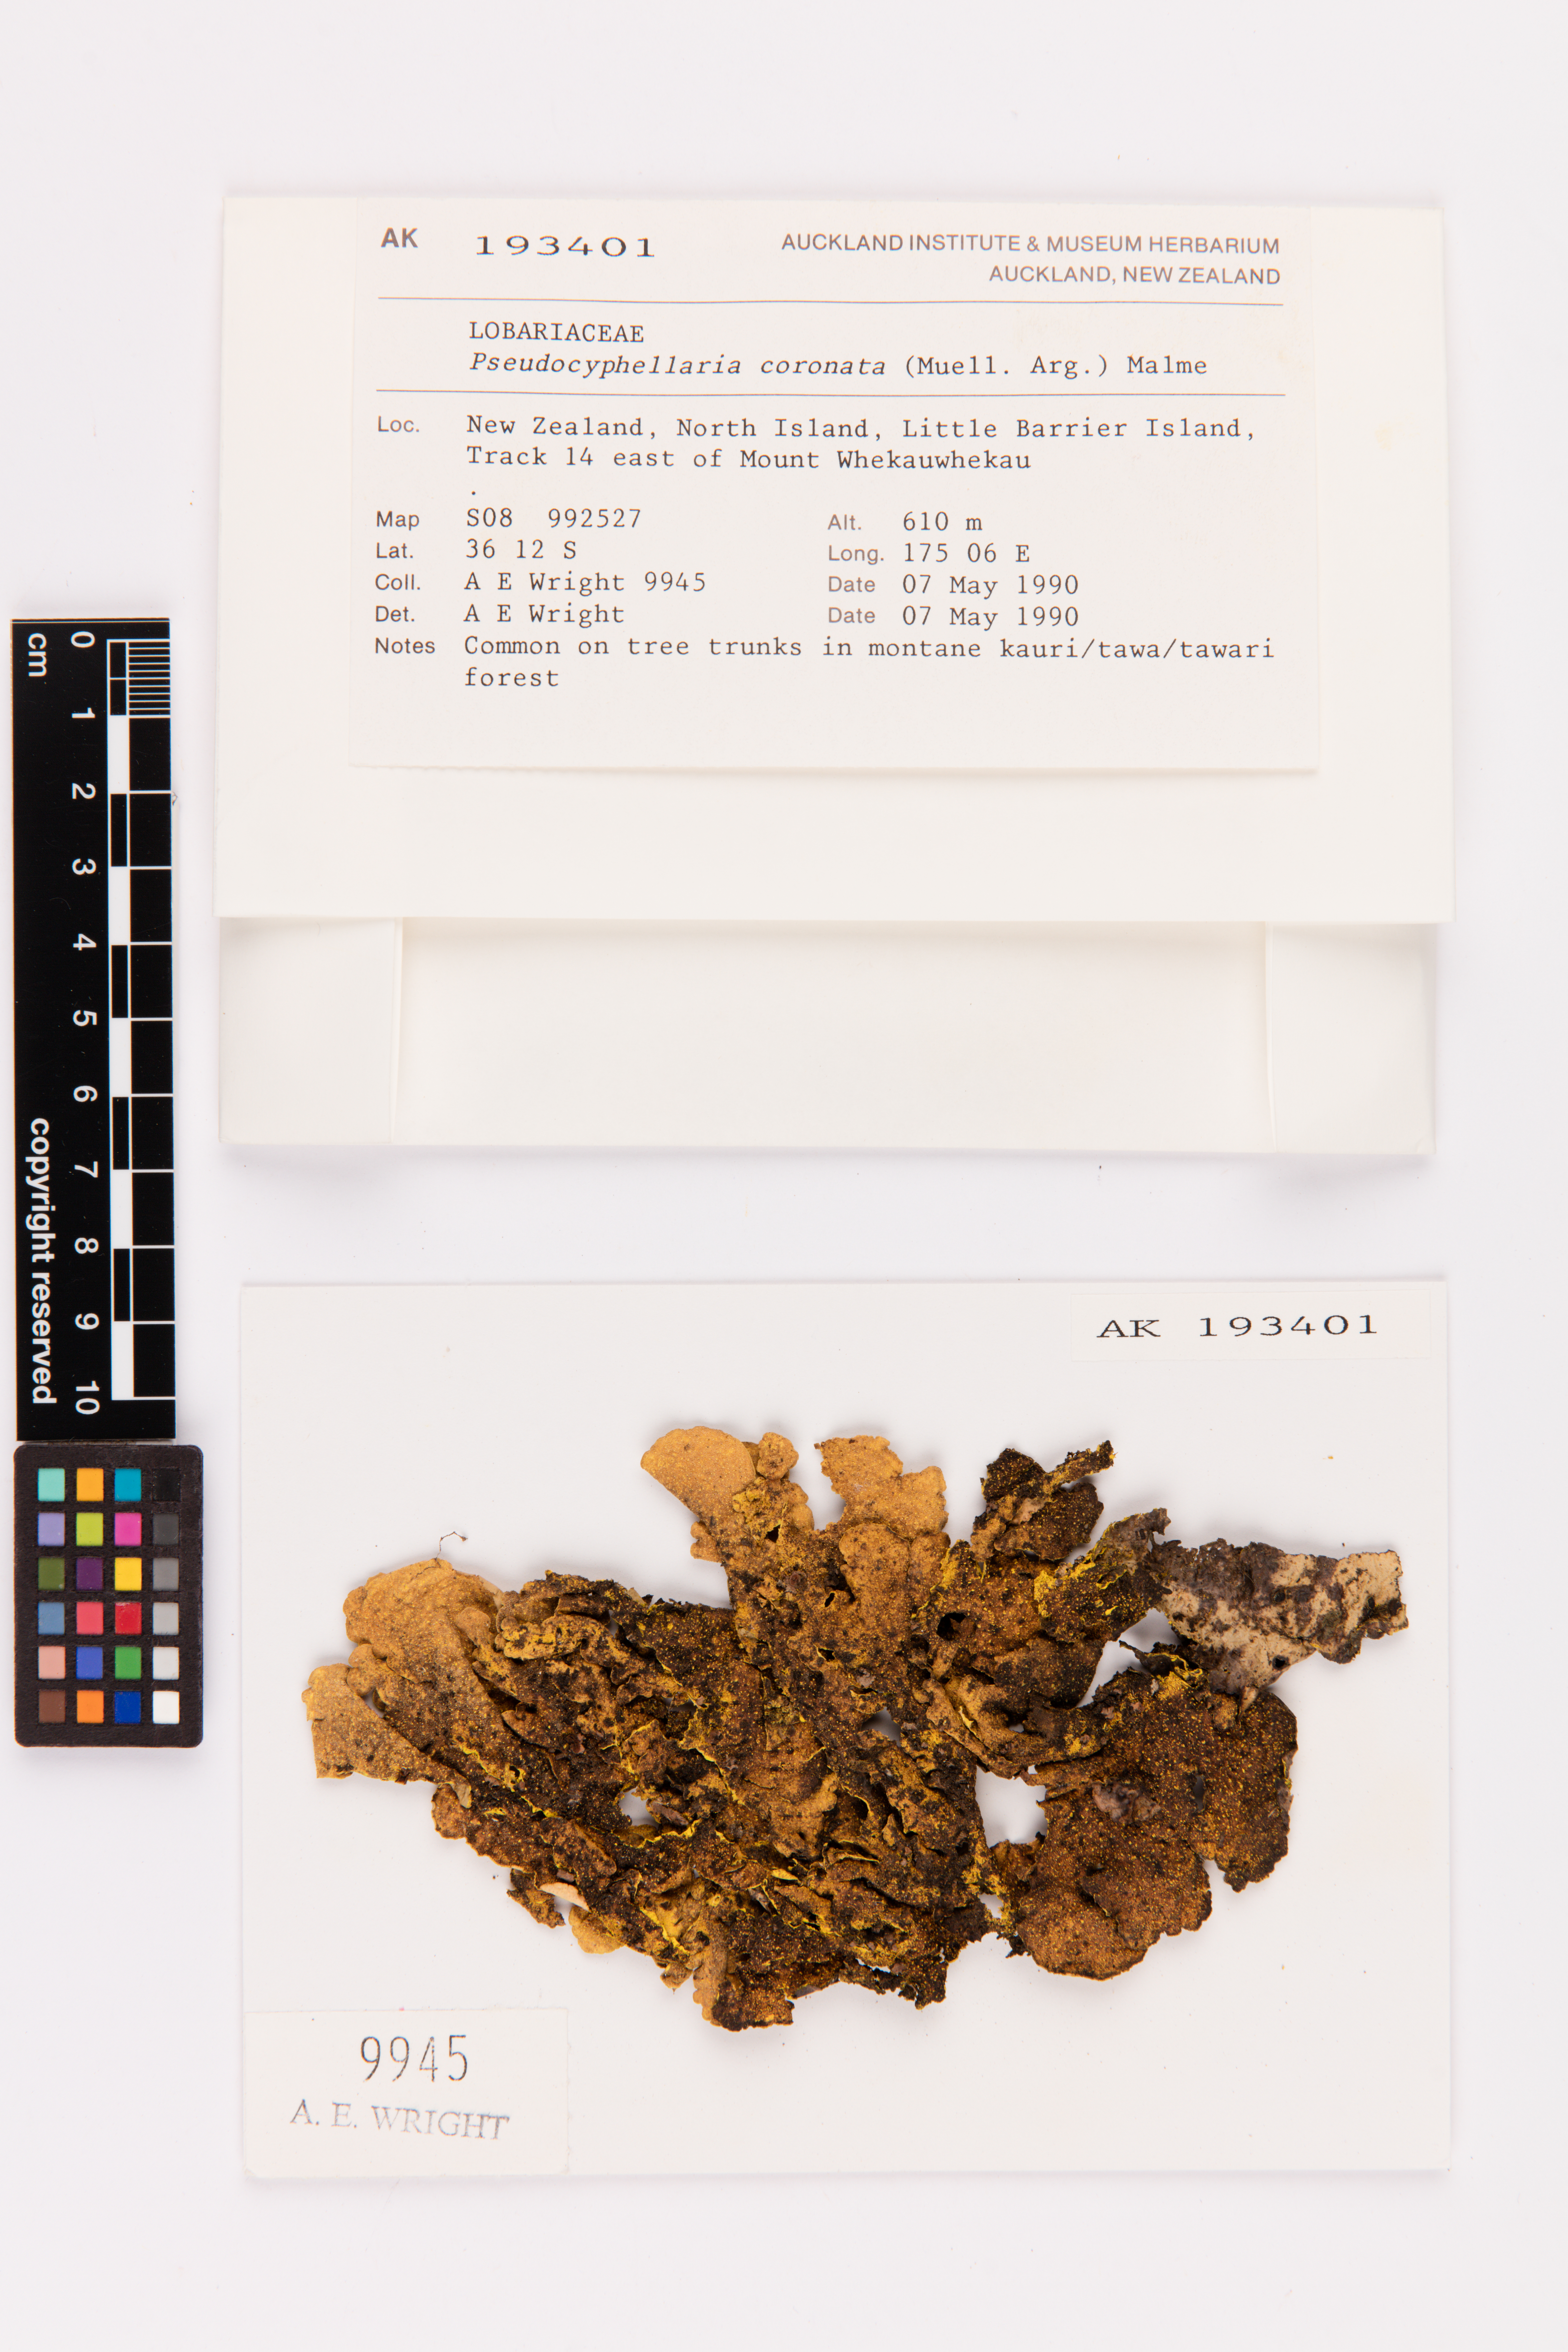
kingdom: Fungi
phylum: Ascomycota
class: Lecanoromycetes
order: Peltigerales
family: Lobariaceae
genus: Yarrumia
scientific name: Yarrumia coronata
